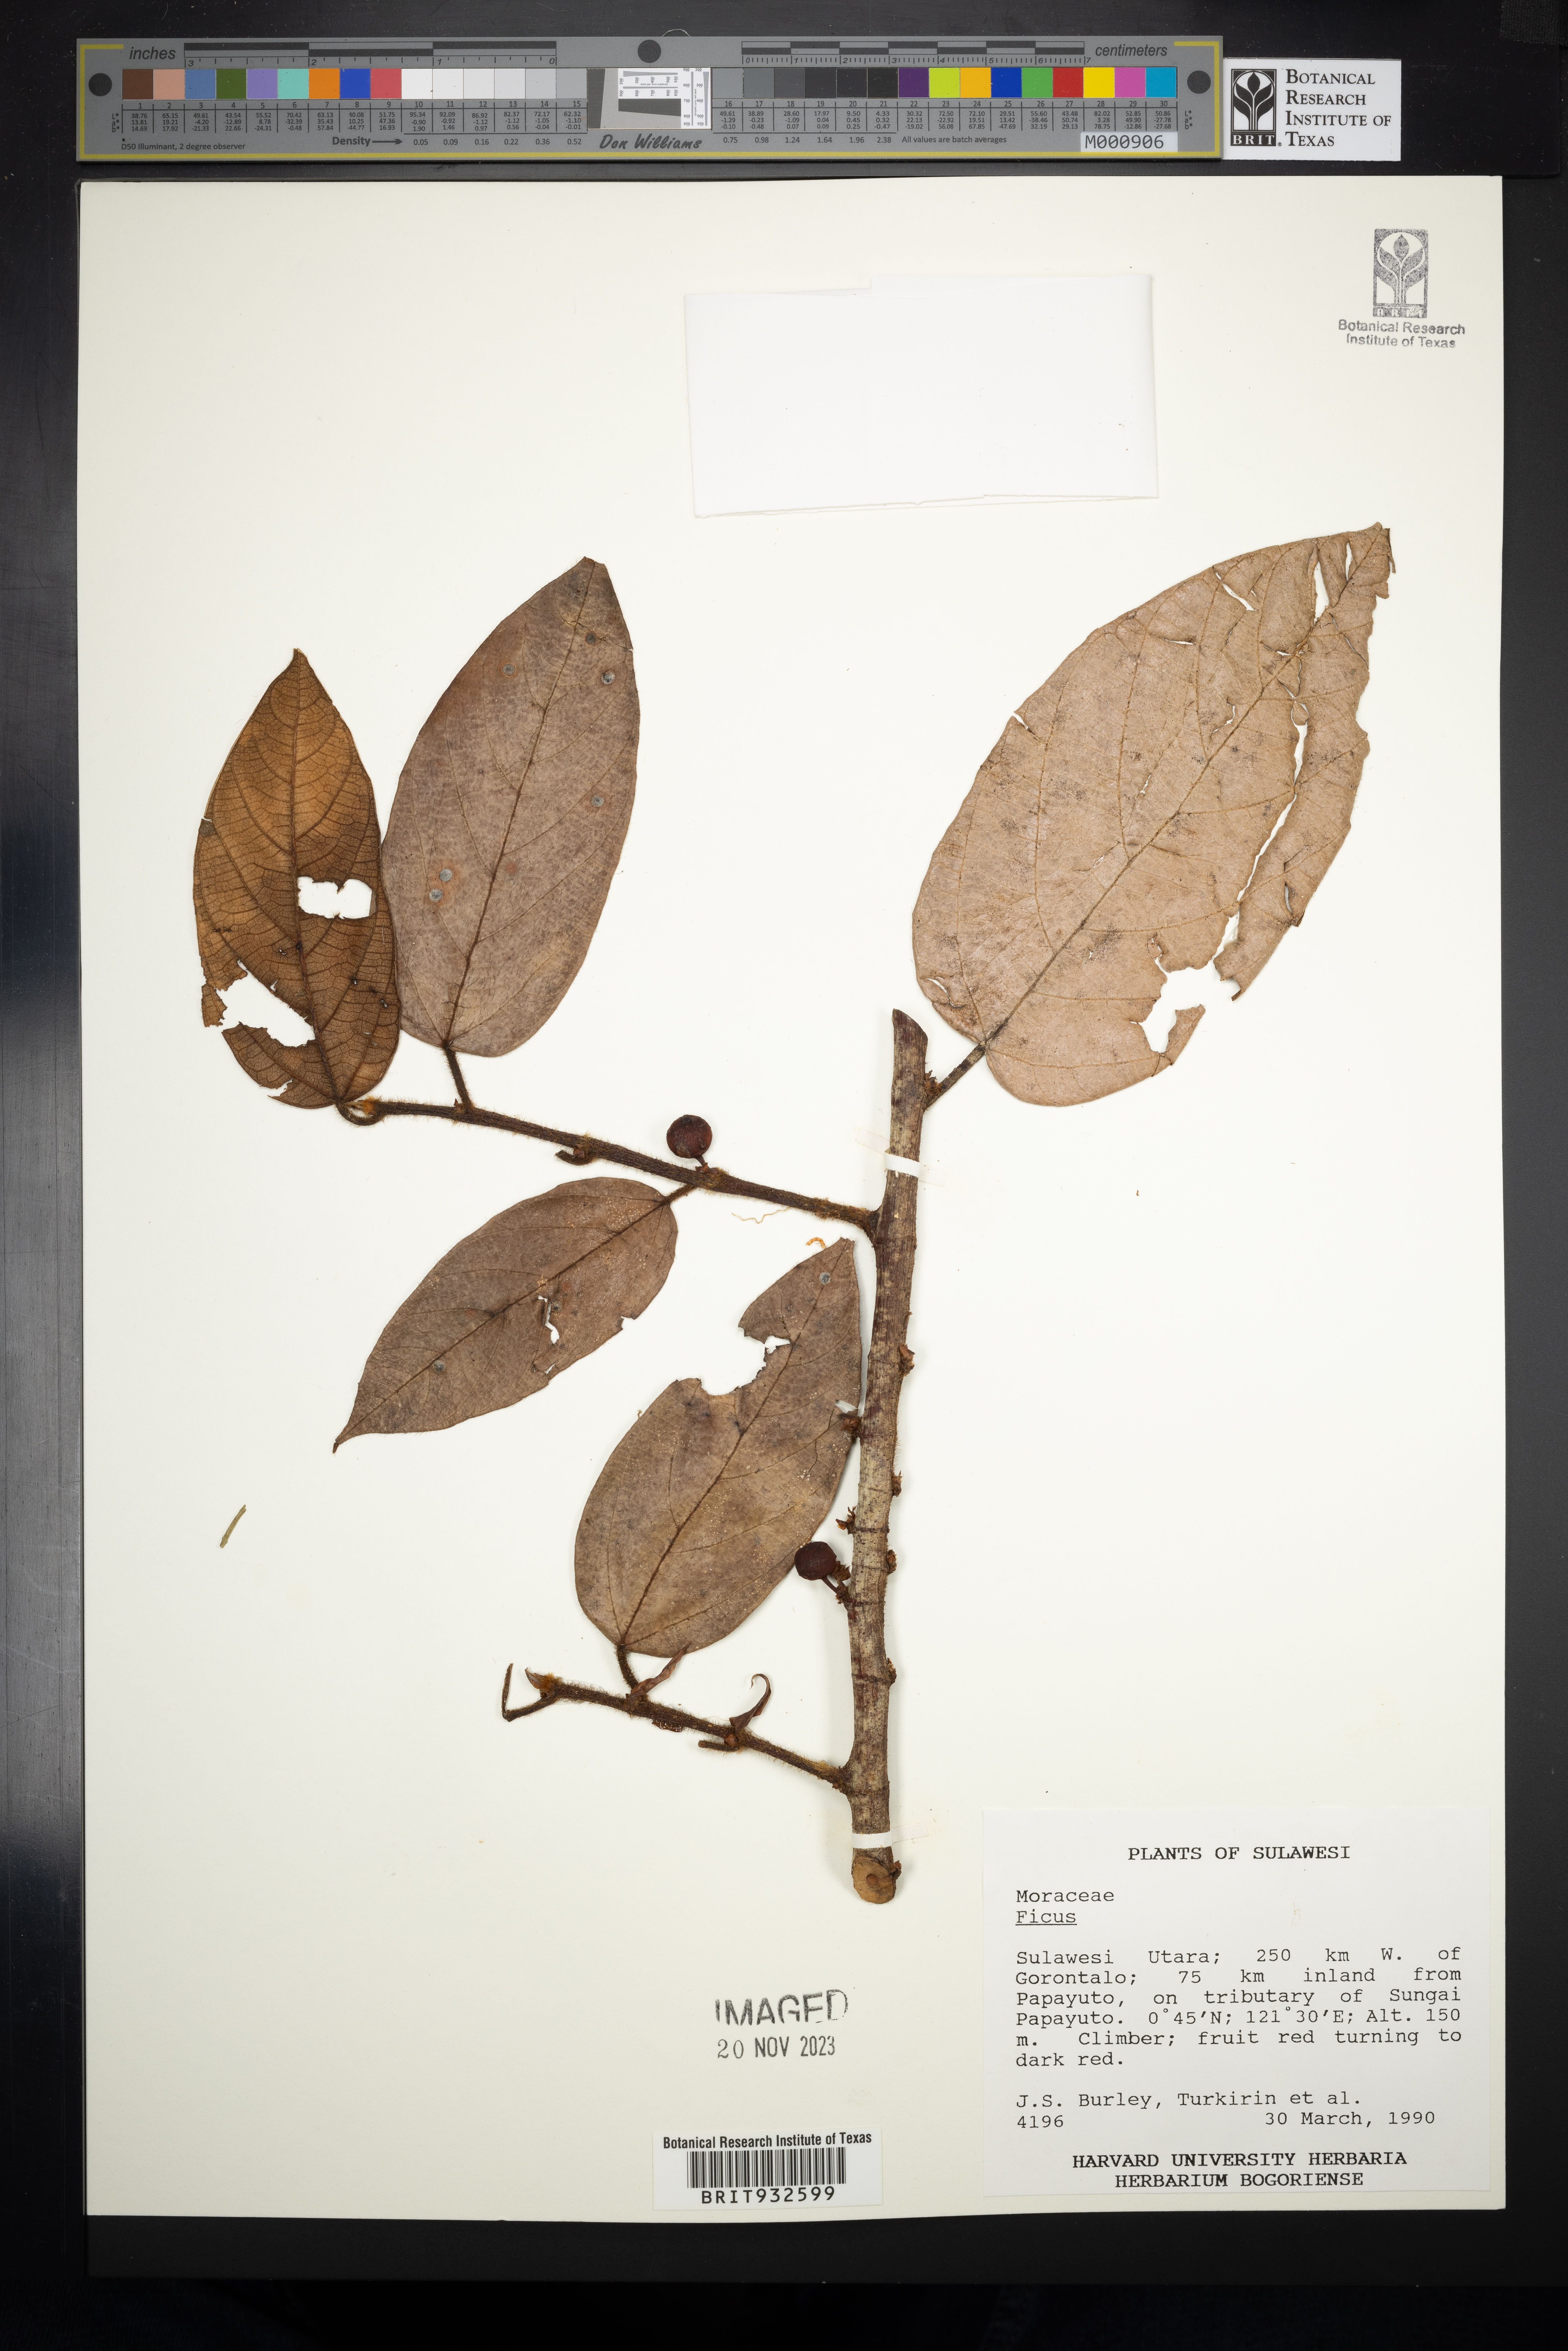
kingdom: Plantae
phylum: Tracheophyta
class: Magnoliopsida
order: Rosales
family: Moraceae
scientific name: Moraceae
